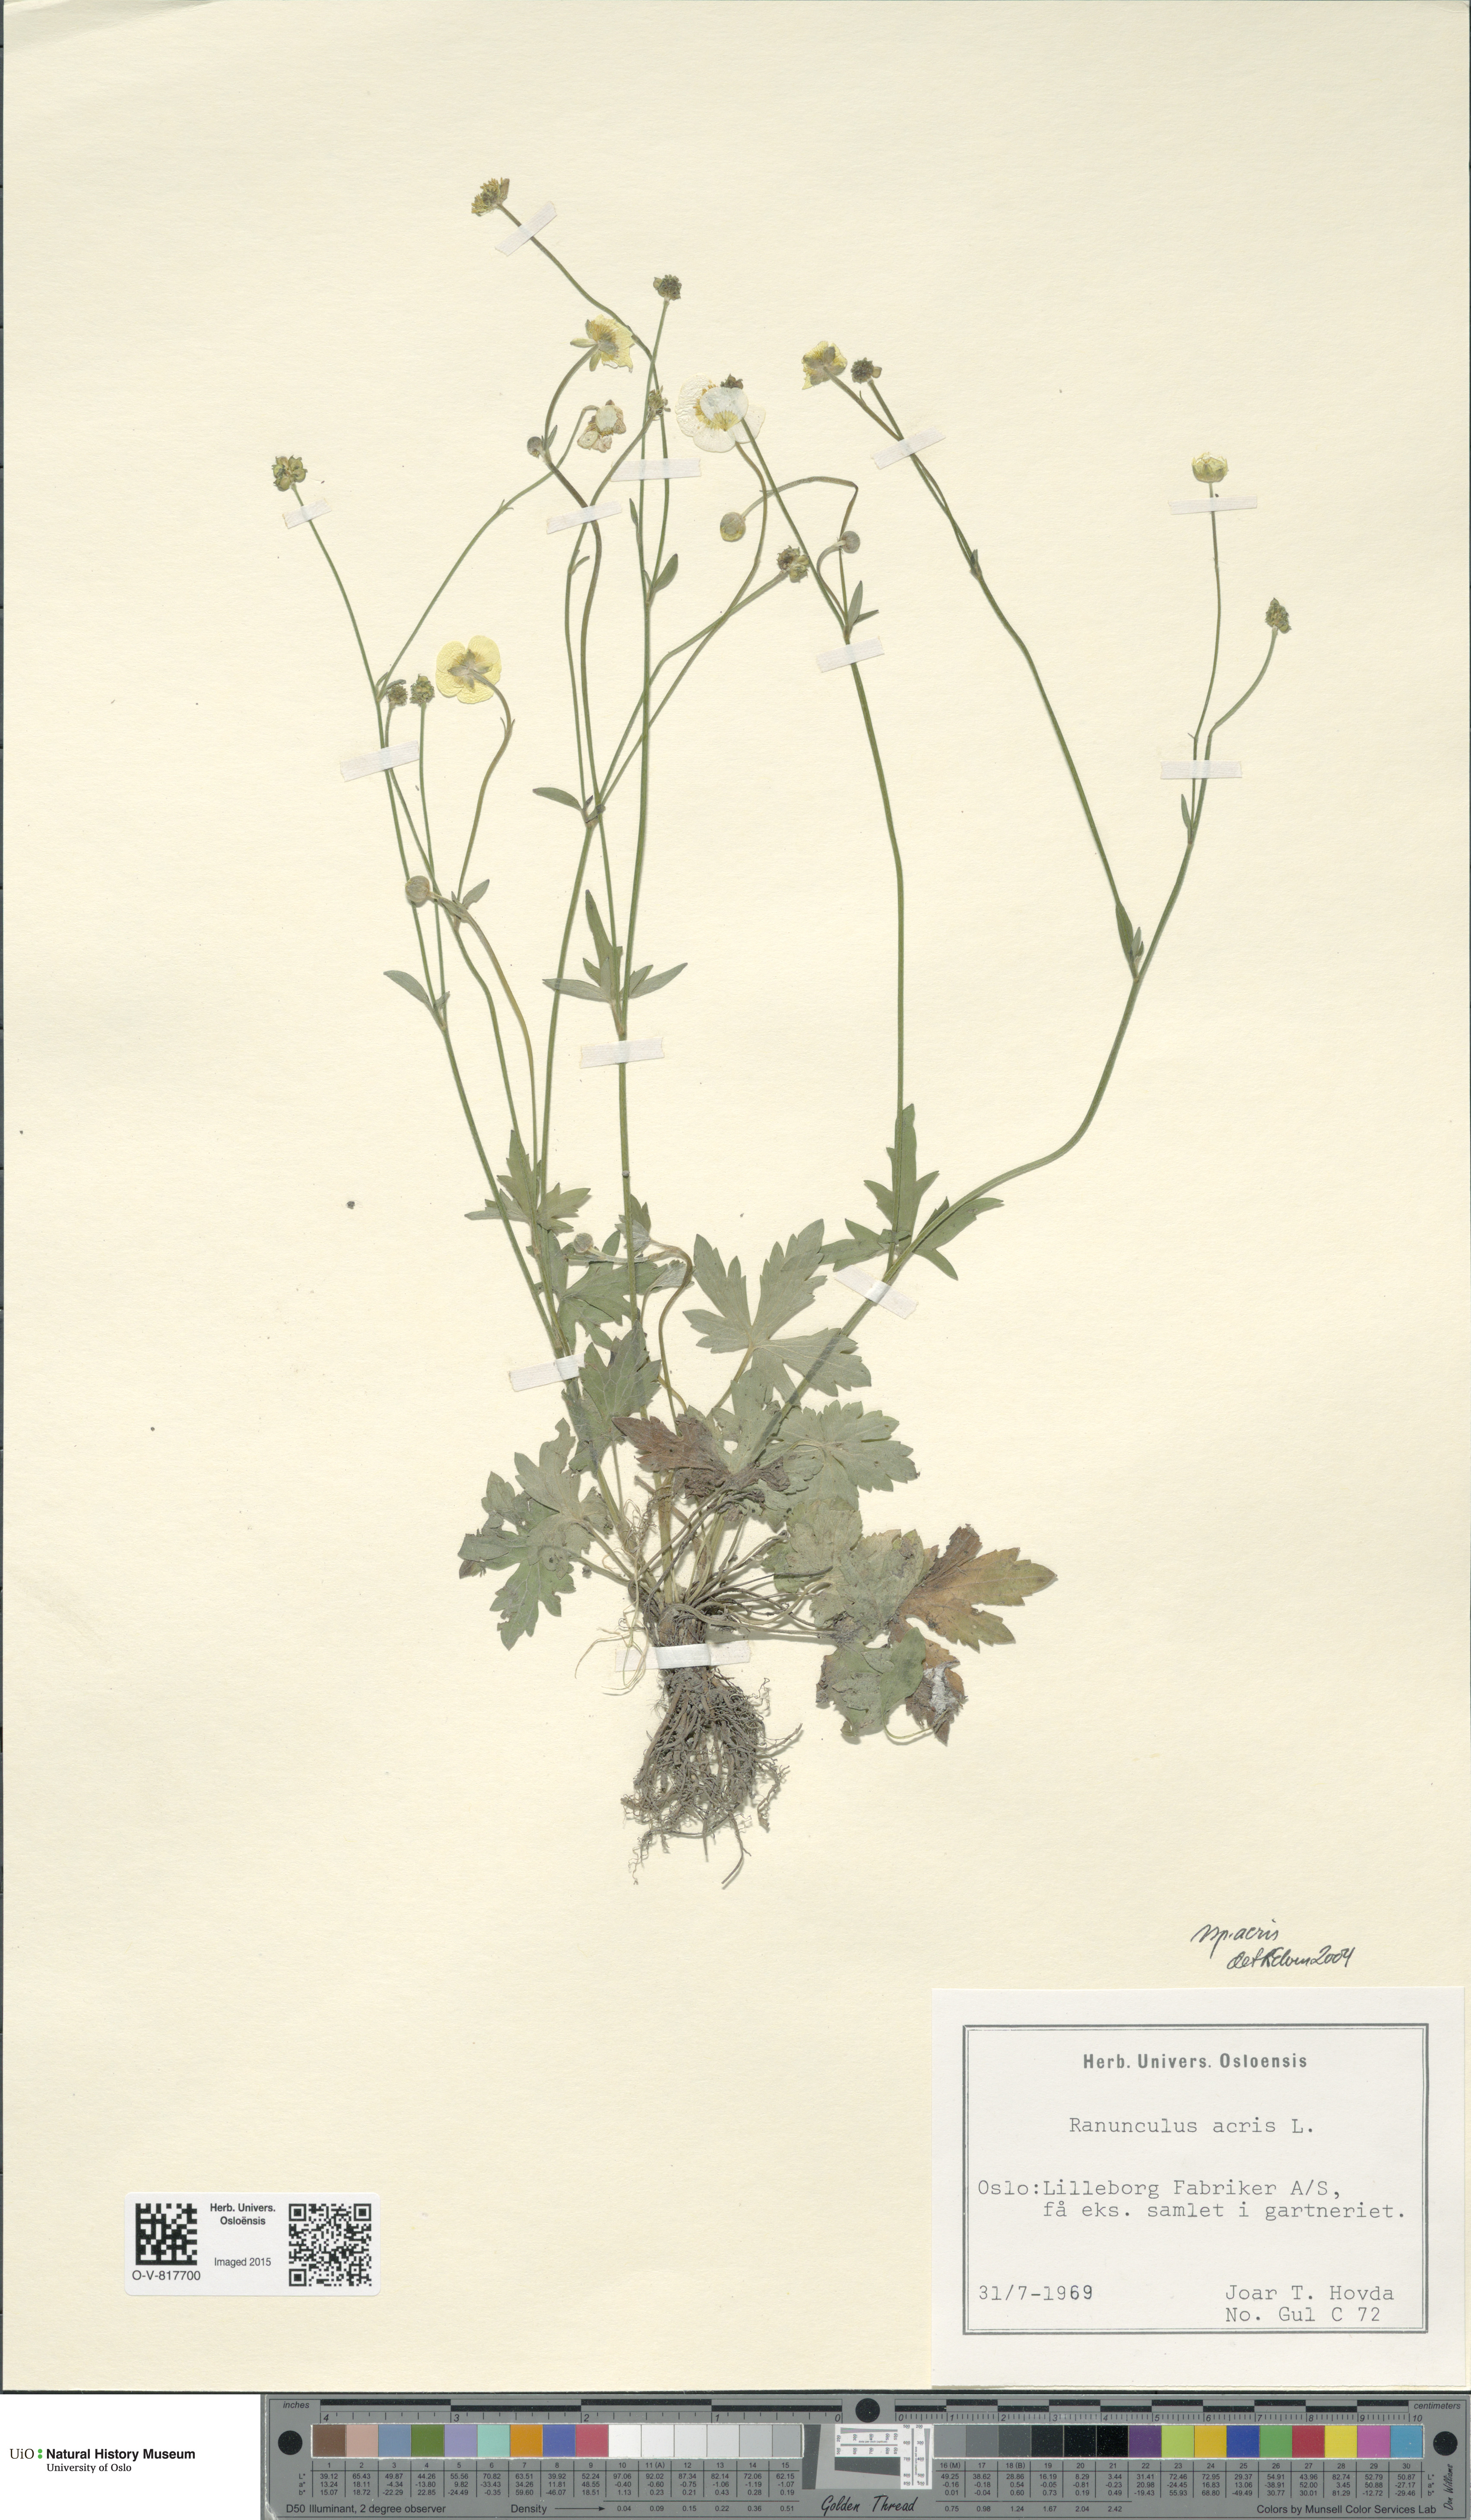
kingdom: Plantae
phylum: Tracheophyta
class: Magnoliopsida
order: Ranunculales
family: Ranunculaceae
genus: Ranunculus
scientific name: Ranunculus acris
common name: Meadow buttercup
